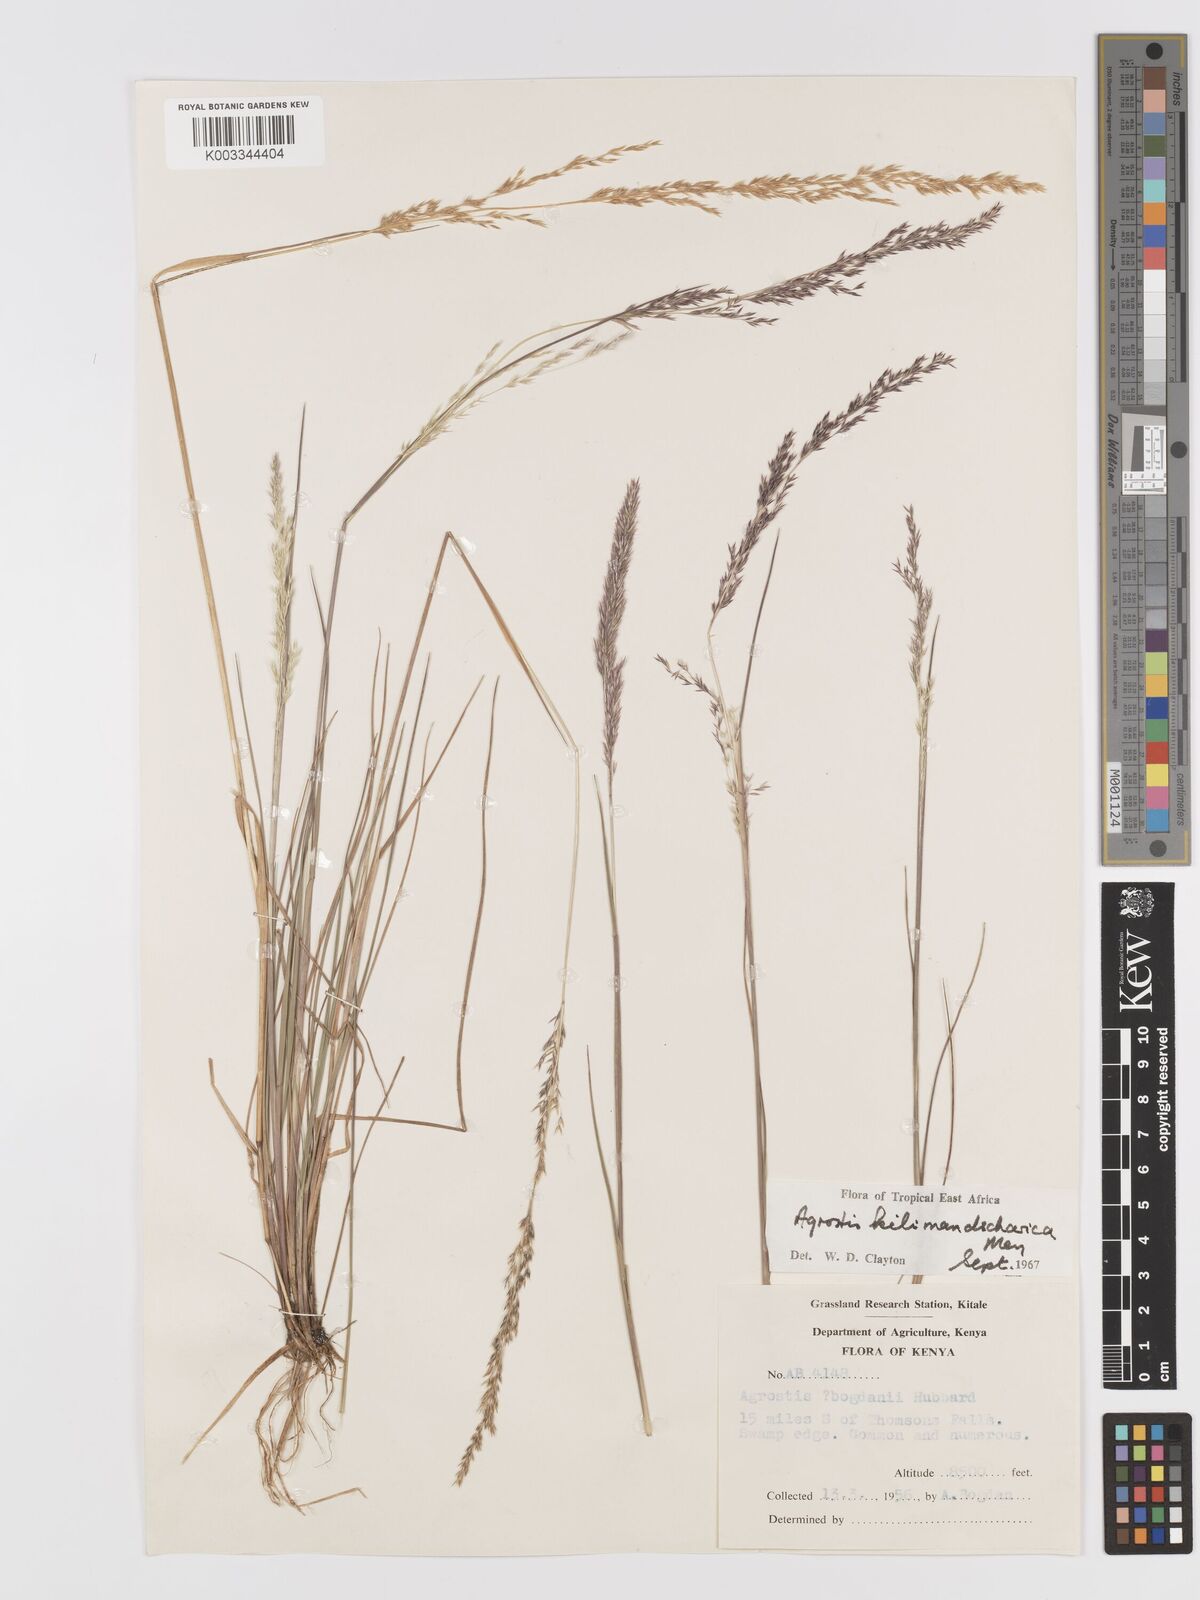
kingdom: Plantae
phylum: Tracheophyta
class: Liliopsida
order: Poales
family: Poaceae
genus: Agrostis
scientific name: Agrostis kilimandscharica
